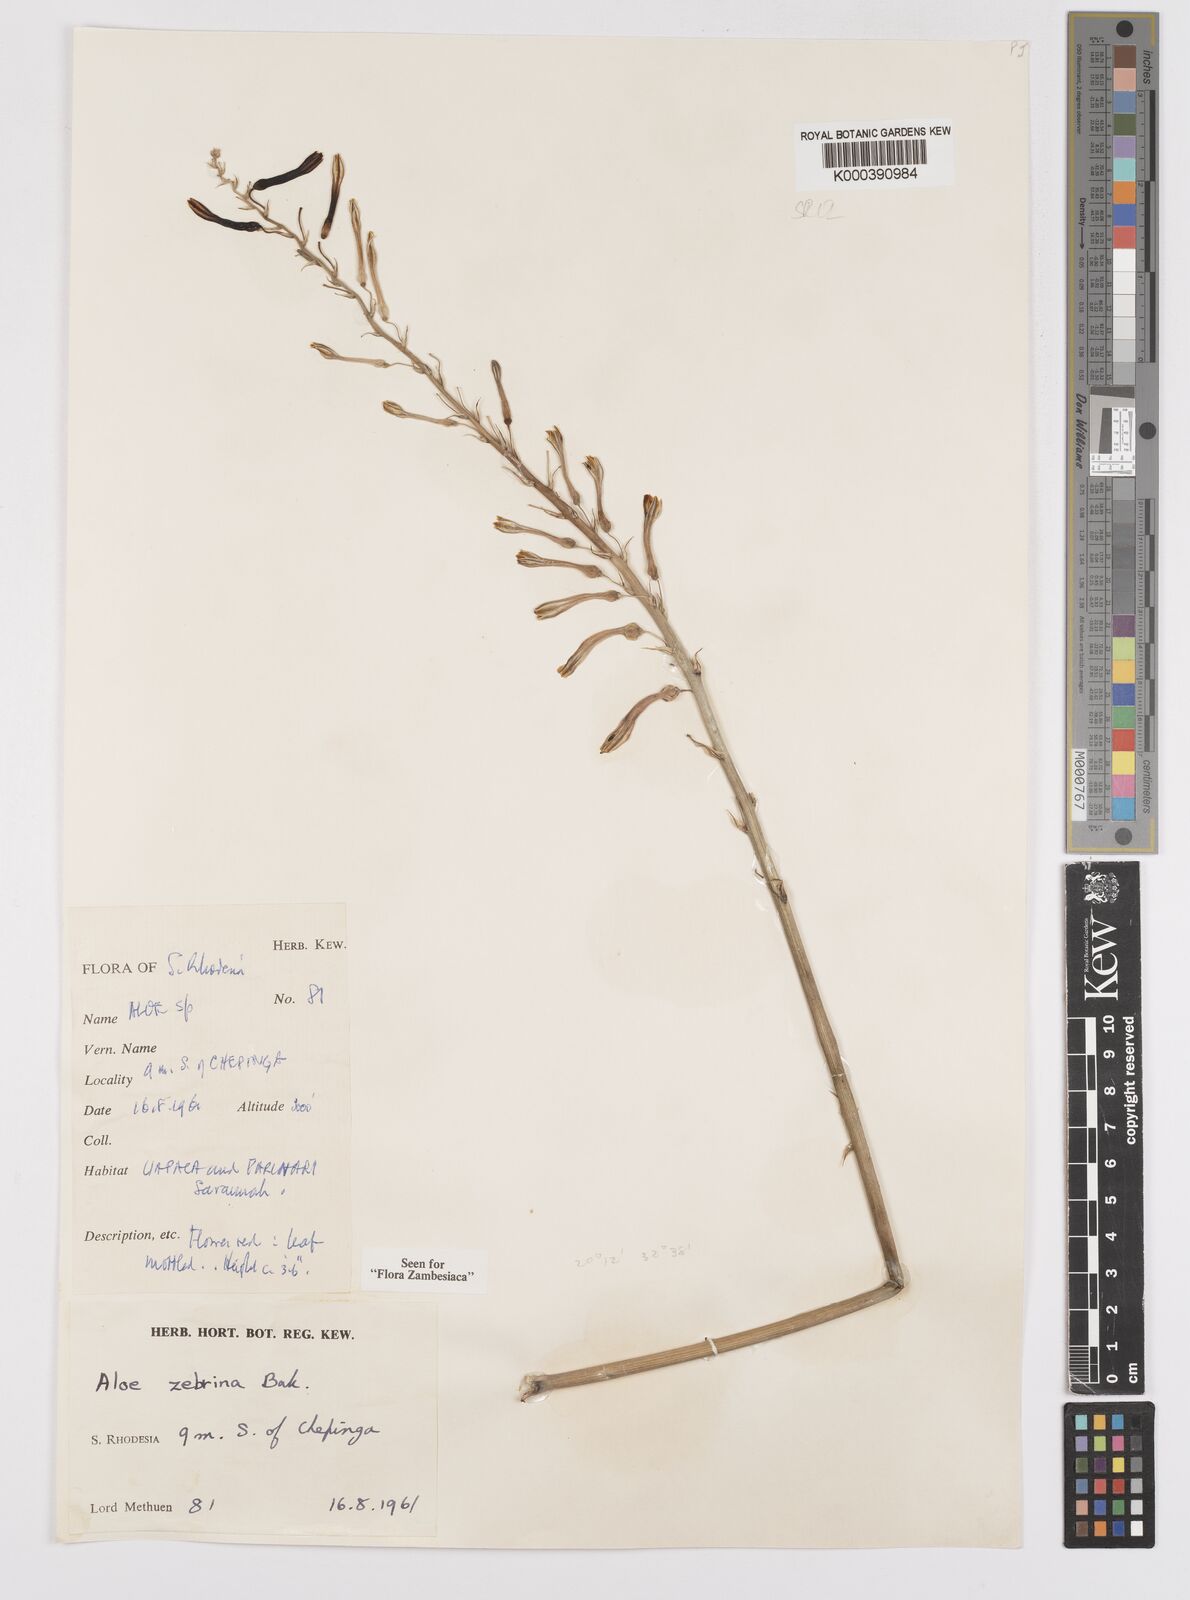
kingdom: Plantae
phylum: Tracheophyta
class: Liliopsida
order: Asparagales
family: Asphodelaceae
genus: Aloe
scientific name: Aloe zebrina
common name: Zebra-leaf aloe
